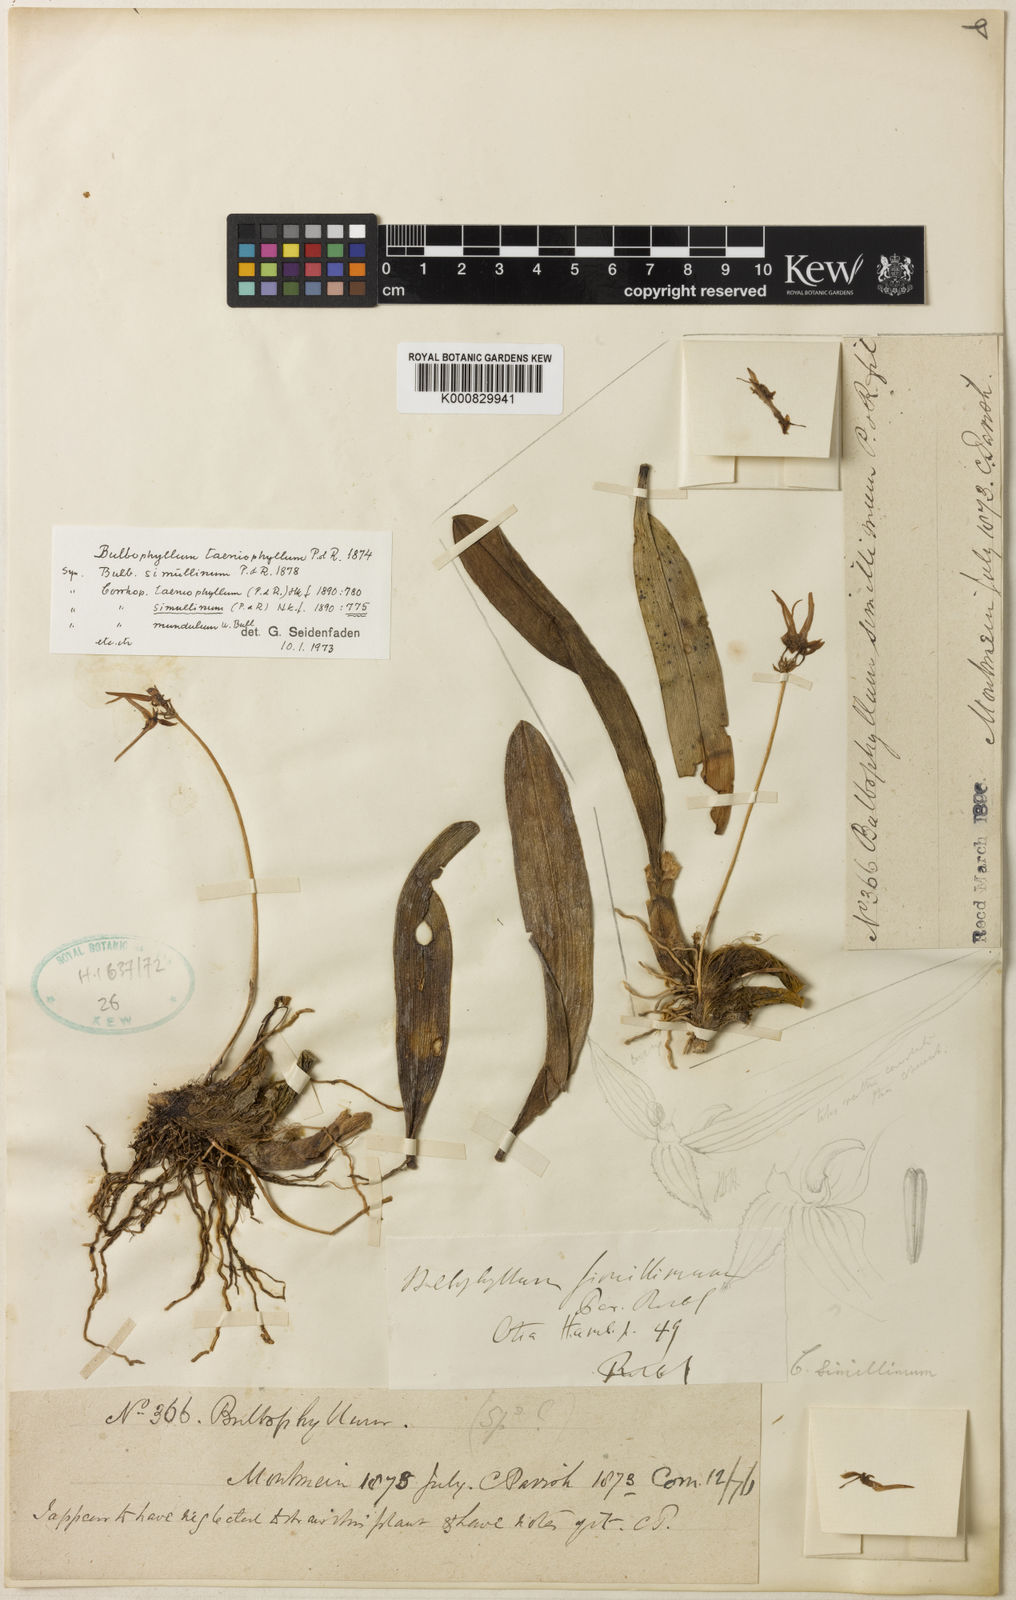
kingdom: Plantae
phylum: Tracheophyta
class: Liliopsida
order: Asparagales
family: Orchidaceae
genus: Bulbophyllum
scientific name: Bulbophyllum taeniophyllum
